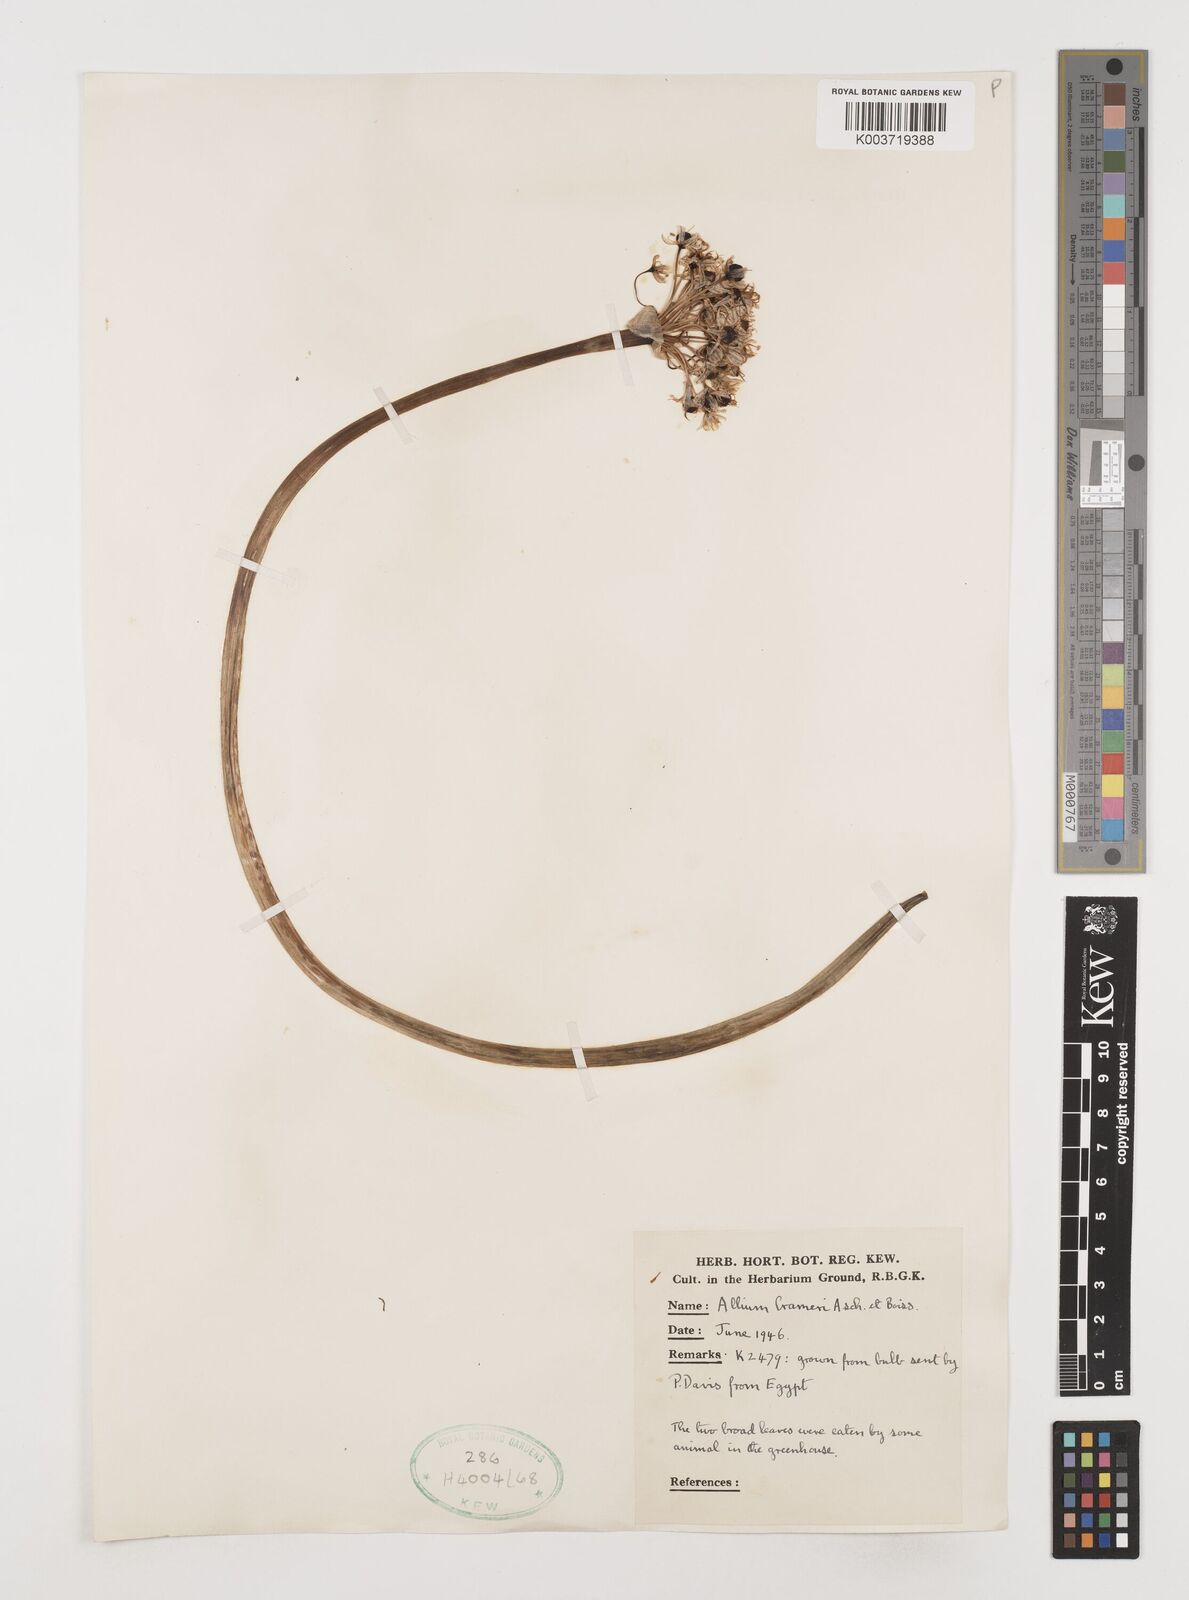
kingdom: Plantae
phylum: Tracheophyta
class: Liliopsida
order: Asparagales
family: Amaryllidaceae
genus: Allium
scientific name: Allium crameri
